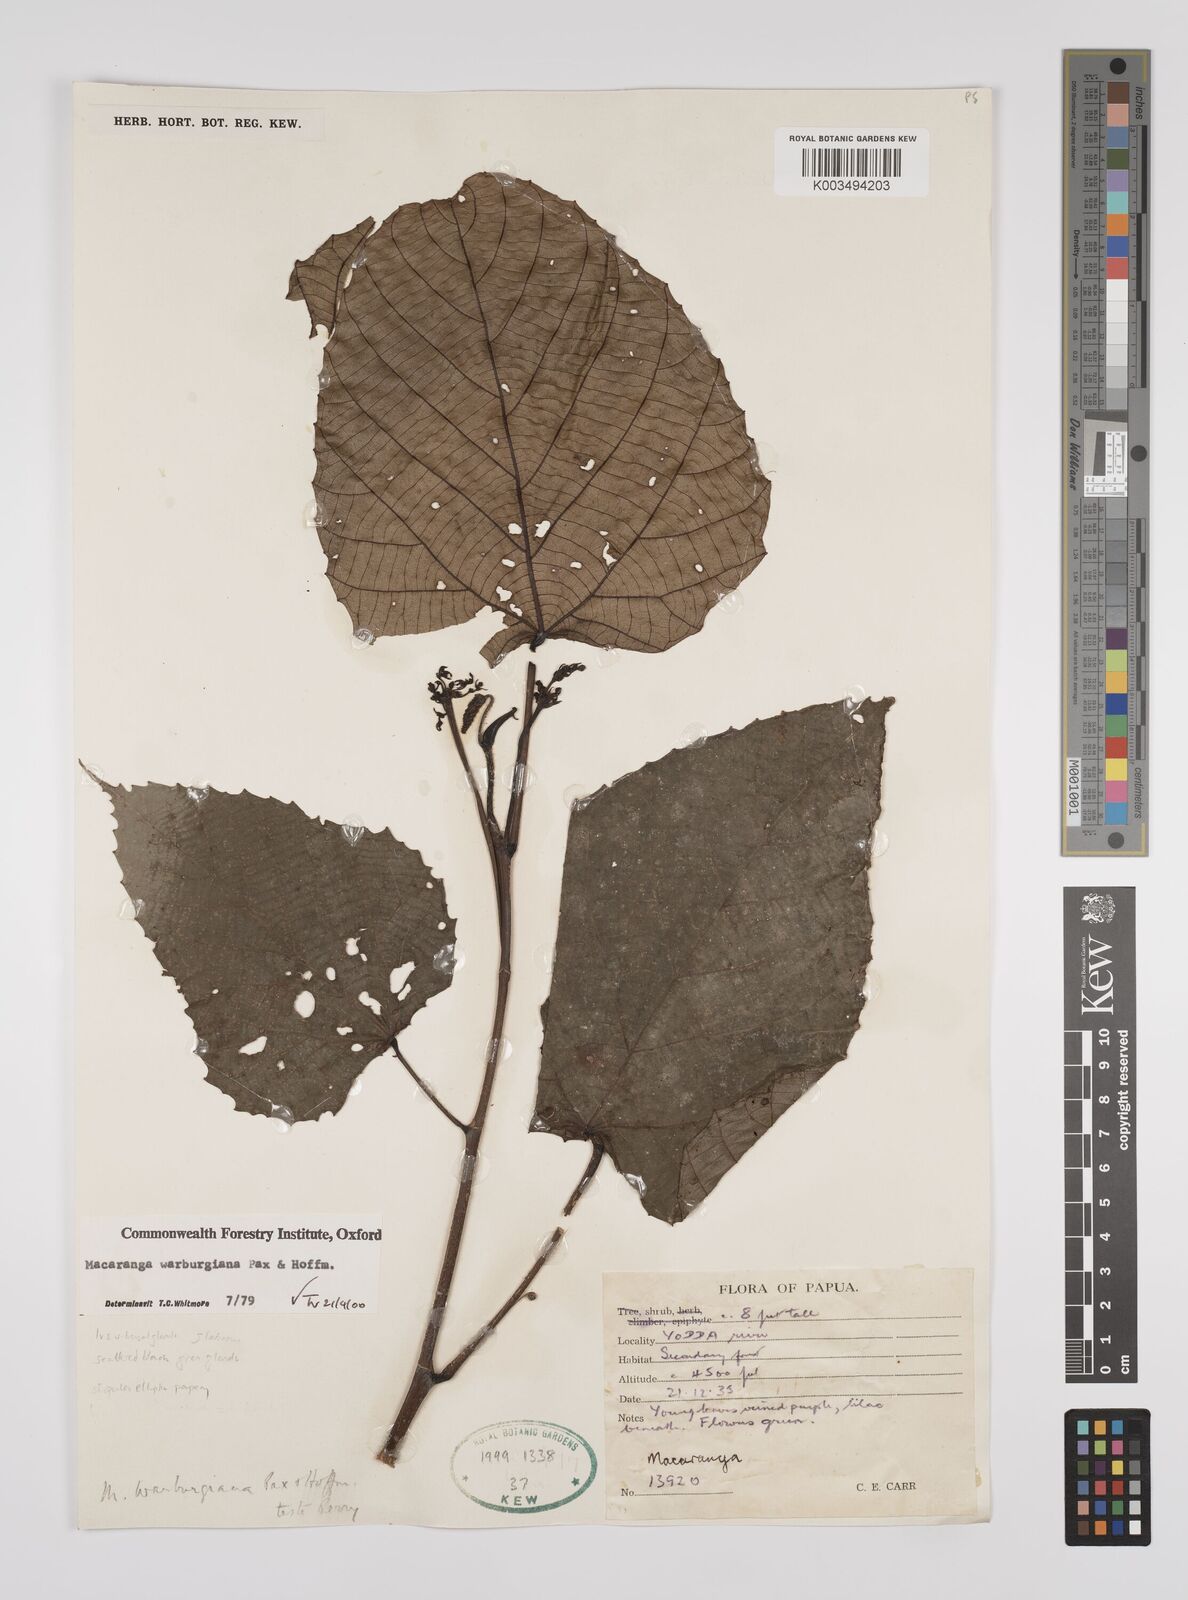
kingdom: Plantae
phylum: Tracheophyta
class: Magnoliopsida
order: Malpighiales
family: Euphorbiaceae
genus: Macaranga
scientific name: Macaranga warburgiana
